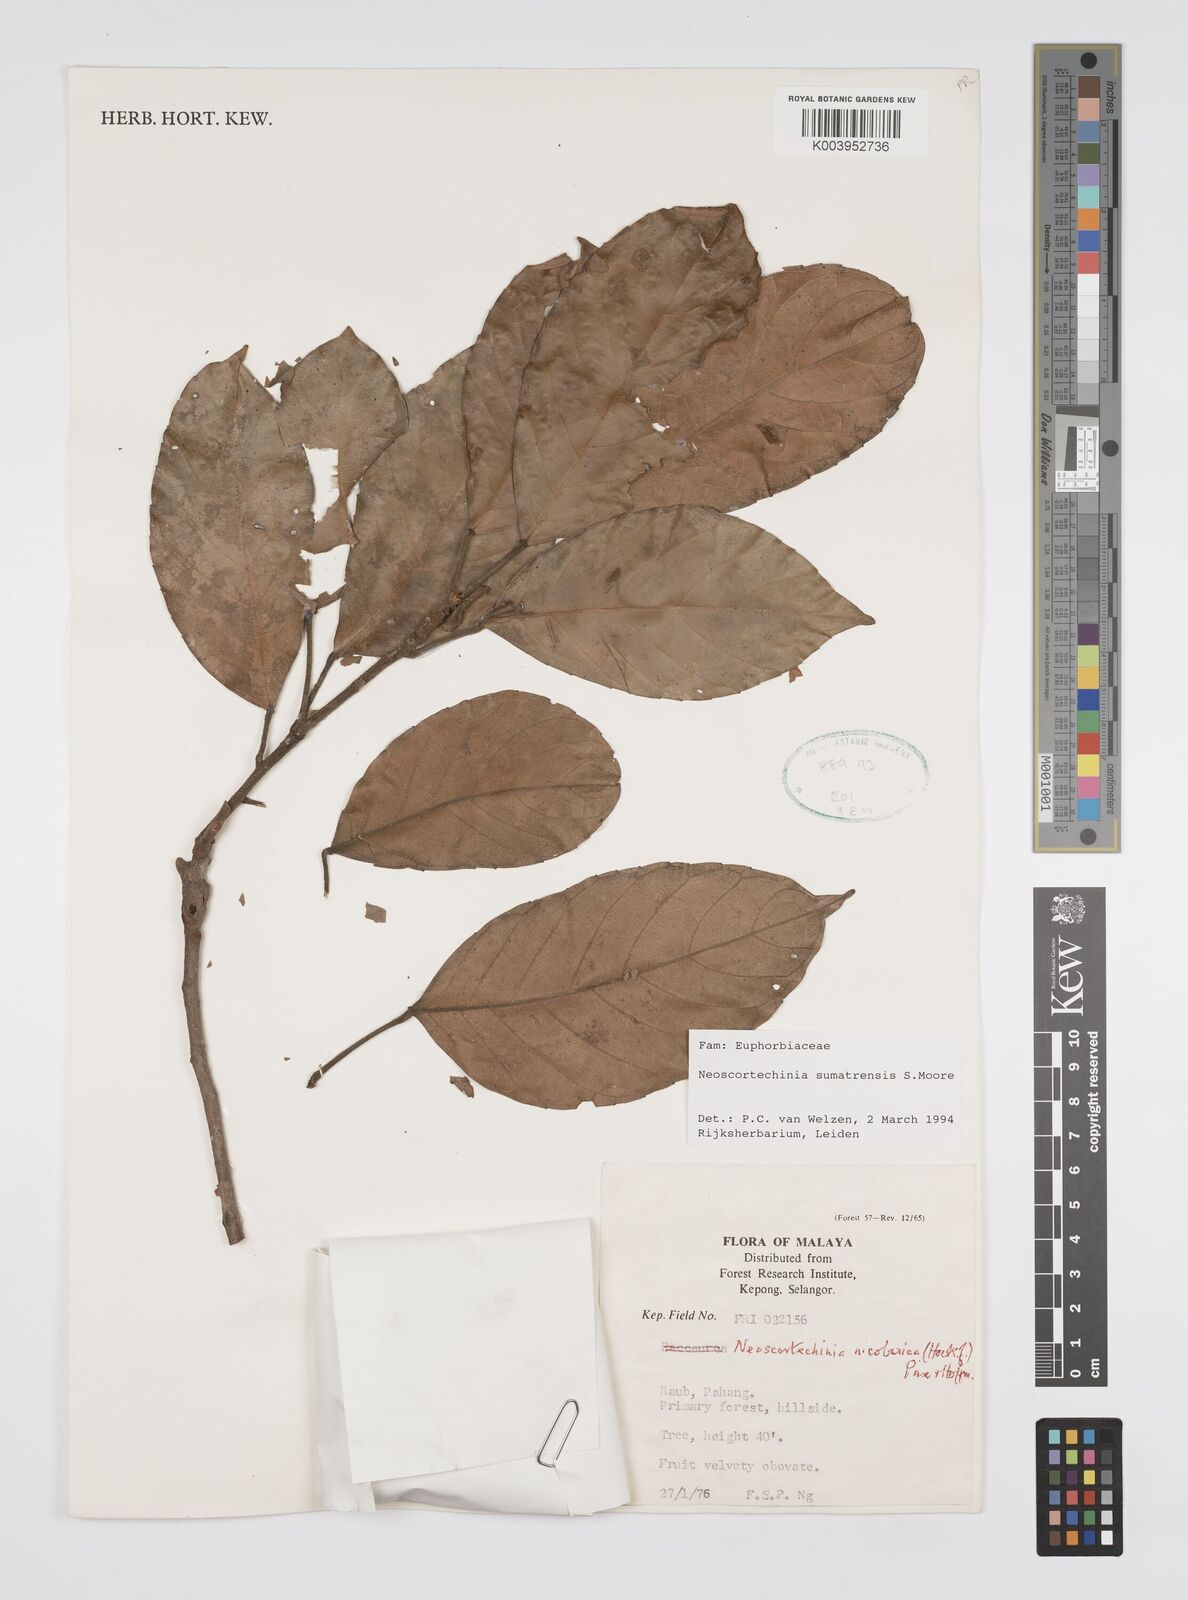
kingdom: Plantae
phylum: Tracheophyta
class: Magnoliopsida
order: Malpighiales
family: Euphorbiaceae
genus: Neoscortechinia
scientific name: Neoscortechinia sumatrensis
